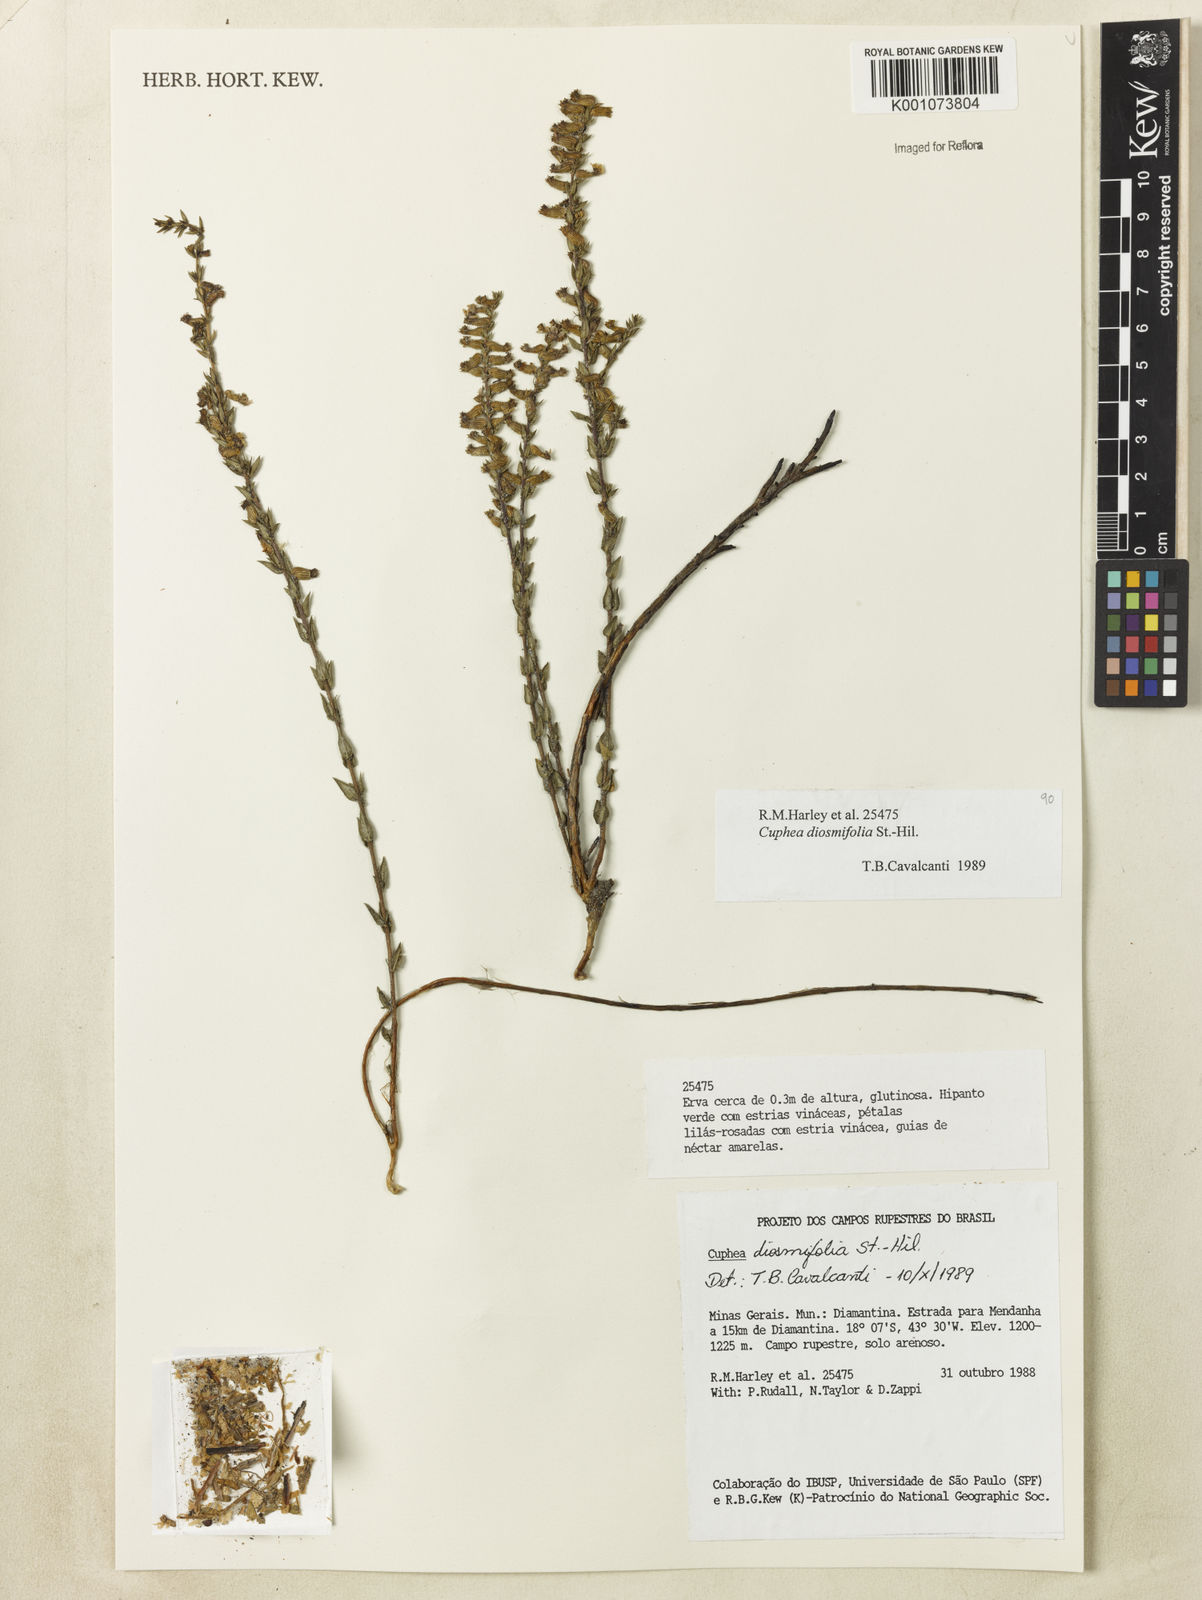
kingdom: Plantae
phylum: Tracheophyta
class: Magnoliopsida
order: Myrtales
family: Lythraceae
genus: Cuphea
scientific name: Cuphea diosmifolia
